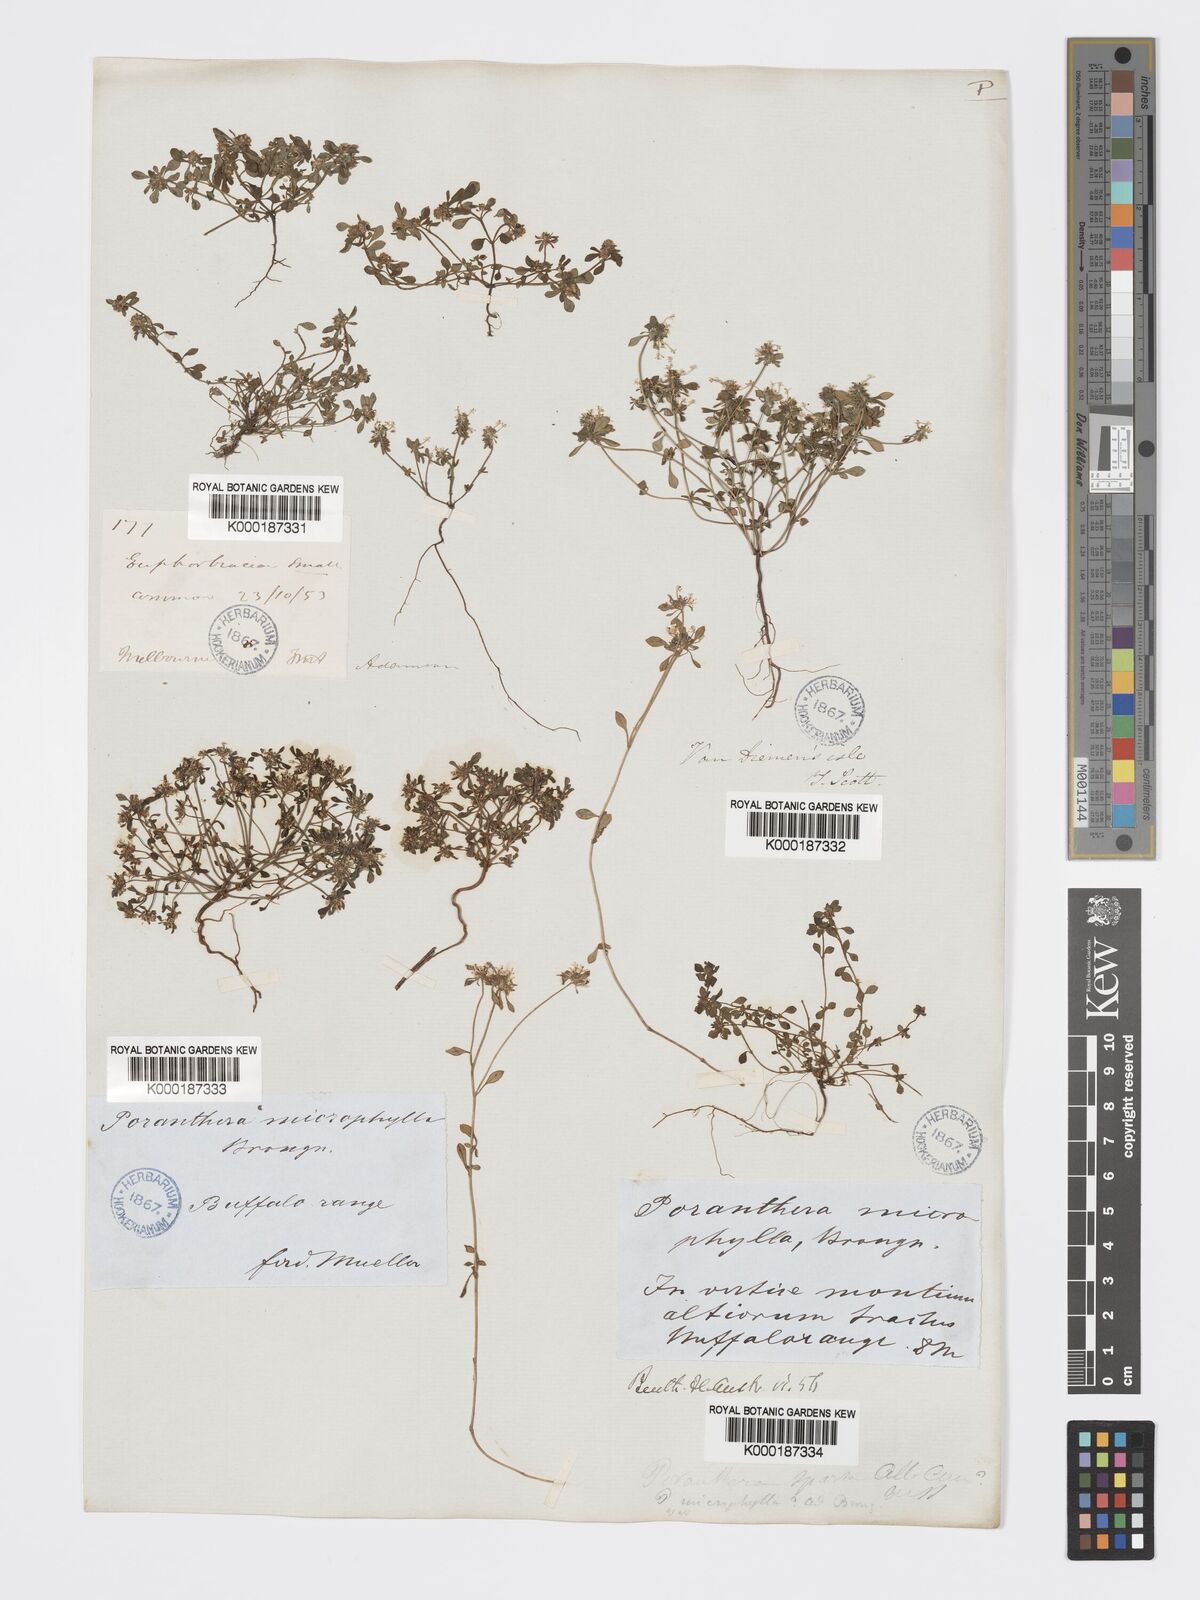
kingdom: Plantae
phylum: Tracheophyta
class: Magnoliopsida
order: Malpighiales
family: Phyllanthaceae
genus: Poranthera
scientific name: Poranthera microphylla
